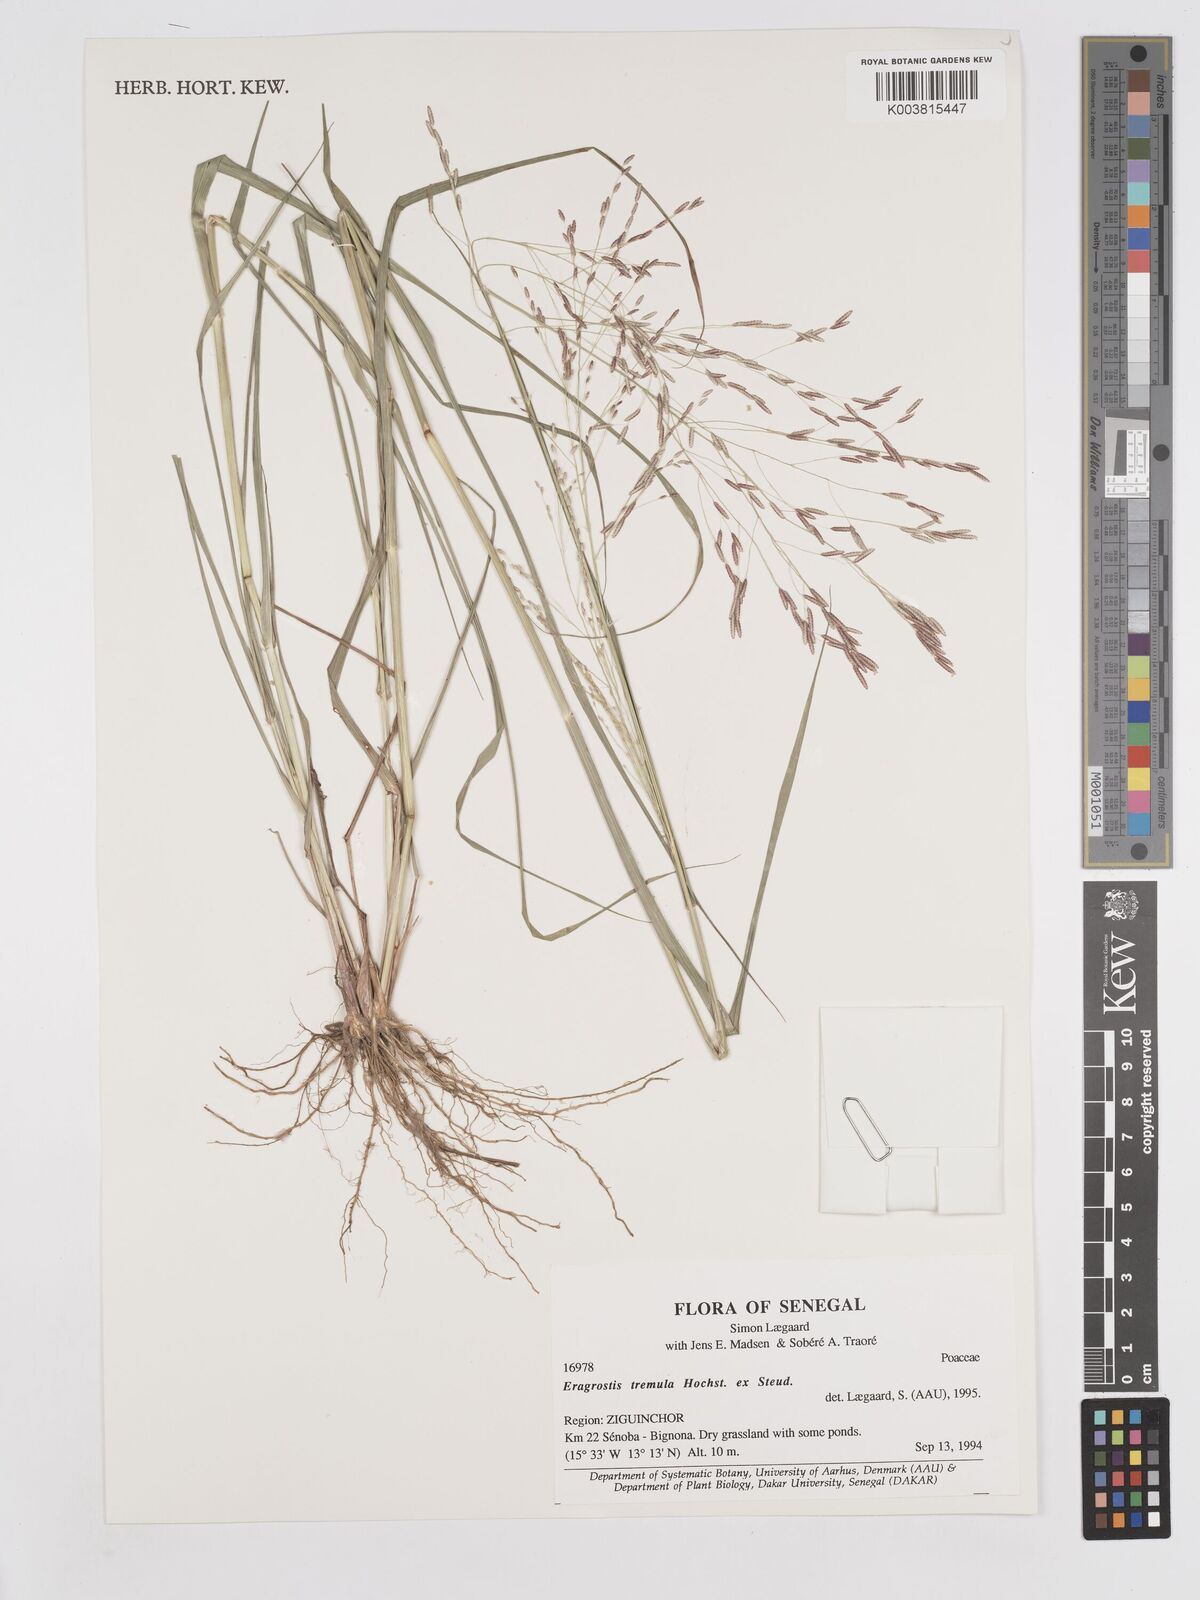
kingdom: Plantae
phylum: Tracheophyta
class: Liliopsida
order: Poales
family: Poaceae
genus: Eragrostis
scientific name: Eragrostis tremula
